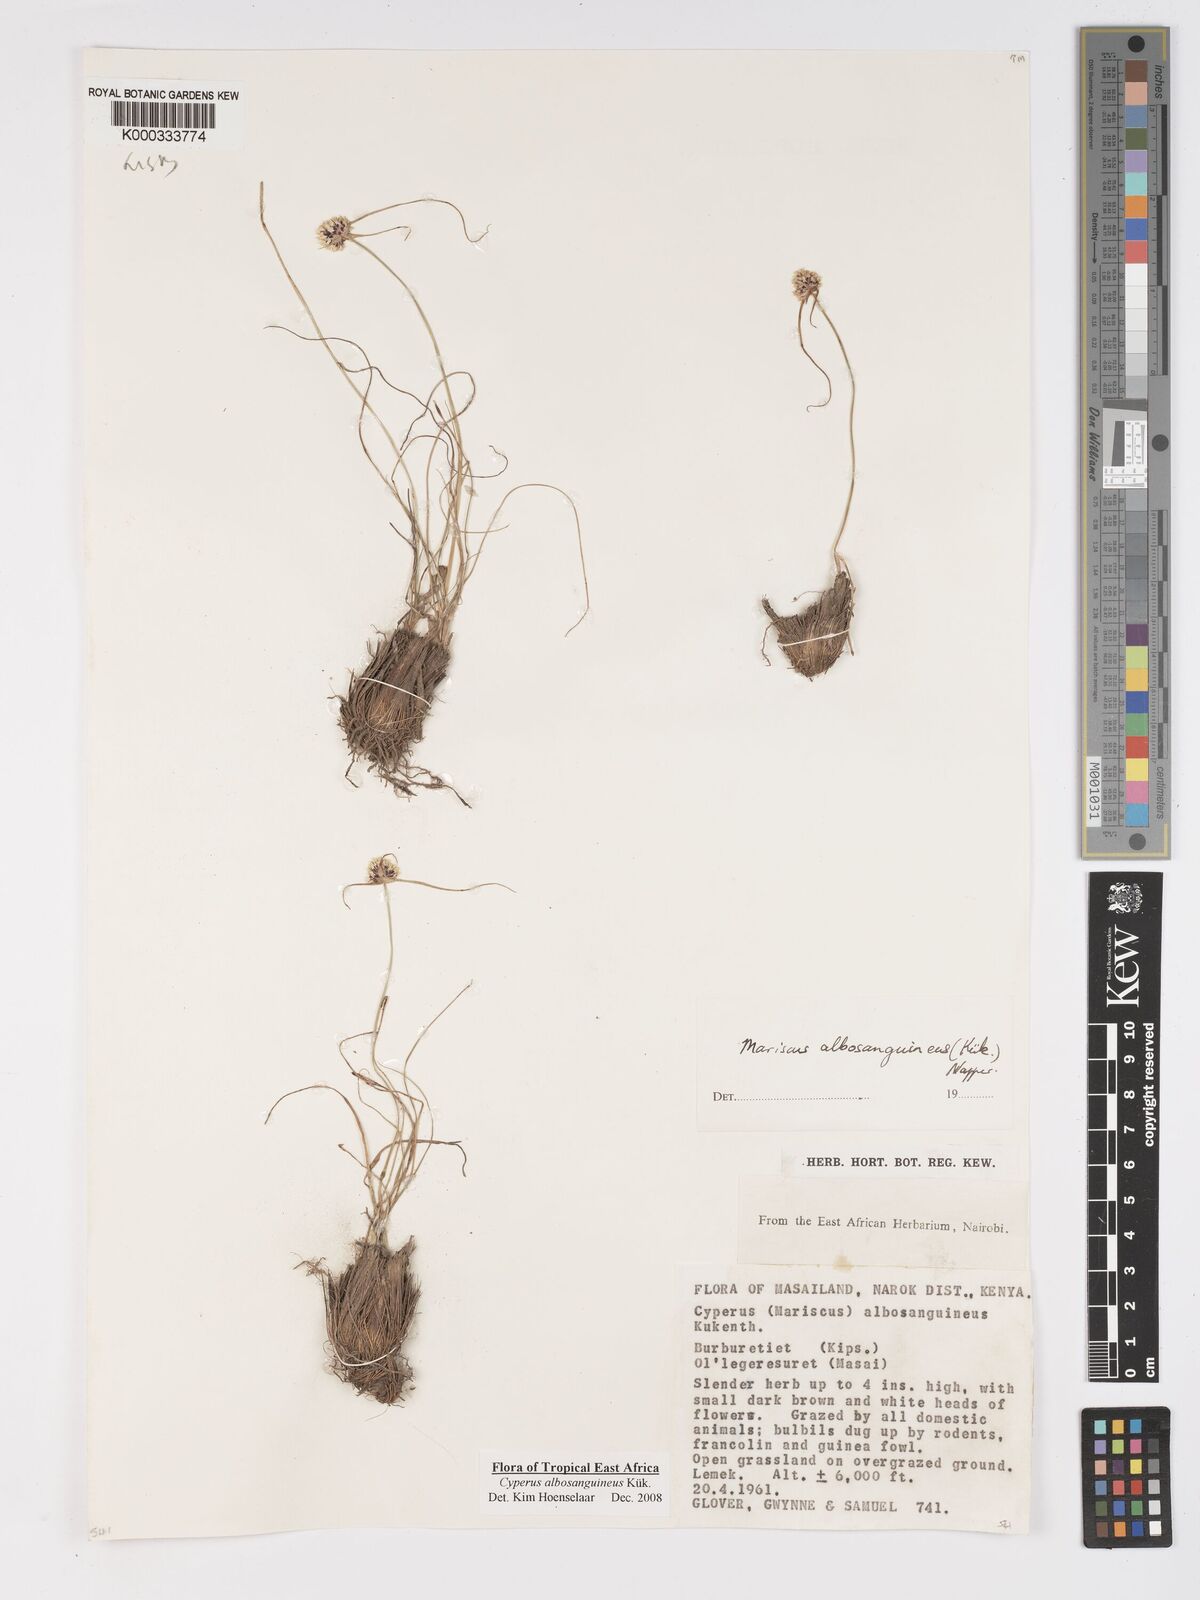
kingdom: Plantae
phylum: Tracheophyta
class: Liliopsida
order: Poales
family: Cyperaceae
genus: Cyperus
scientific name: Cyperus
